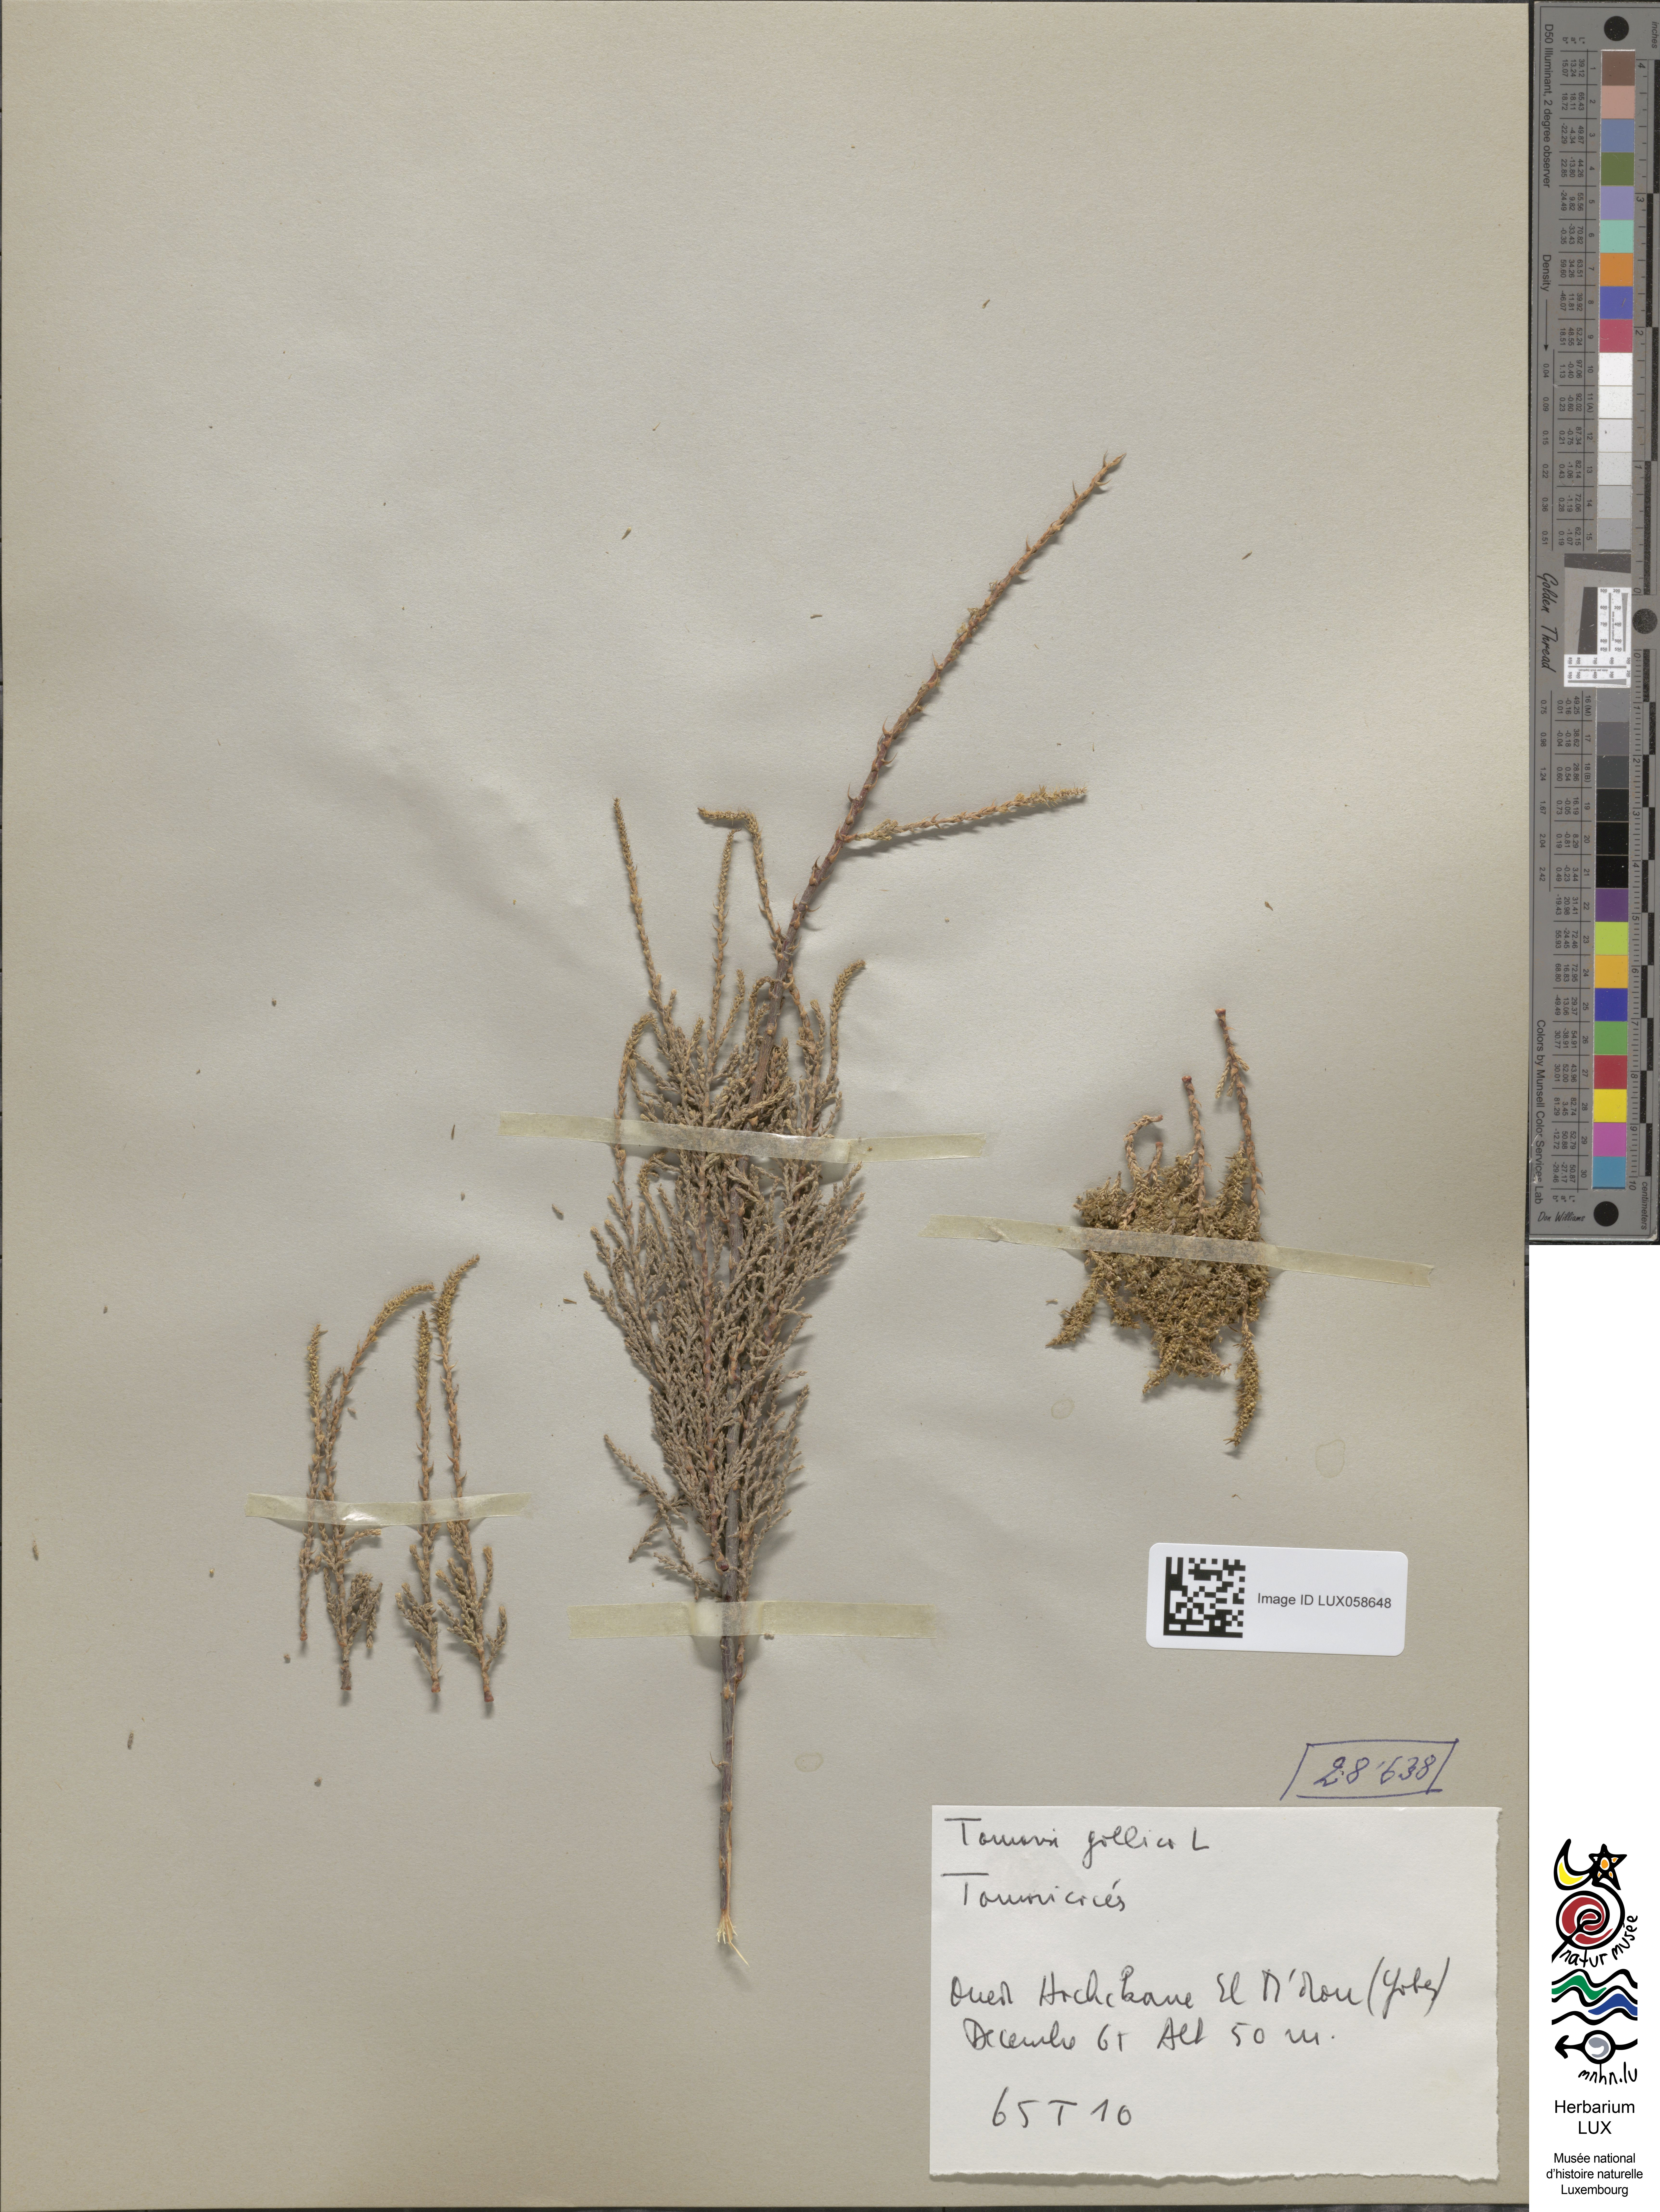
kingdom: Plantae
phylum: Tracheophyta
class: Magnoliopsida
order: Caryophyllales
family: Tamaricaceae
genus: Tamarix
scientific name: Tamarix gallica
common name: Tamarisk
